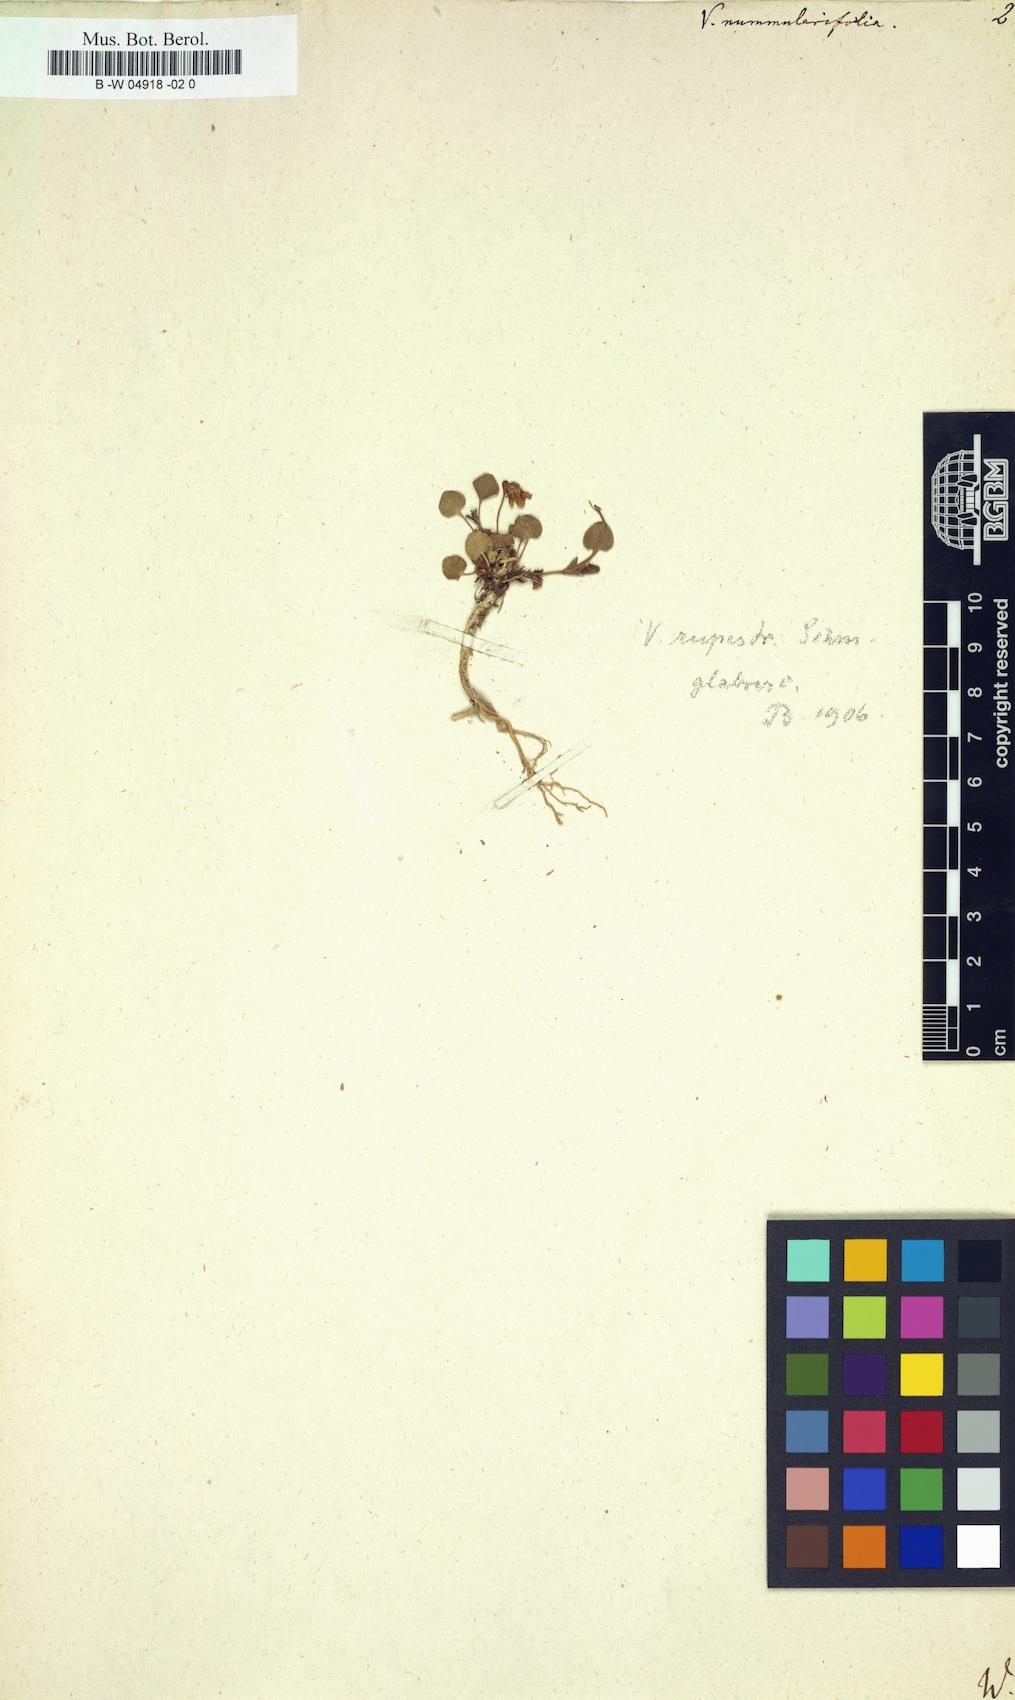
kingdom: Plantae
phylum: Tracheophyta
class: Magnoliopsida
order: Malpighiales
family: Violaceae
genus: Viola
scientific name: Viola nummulariifolia
